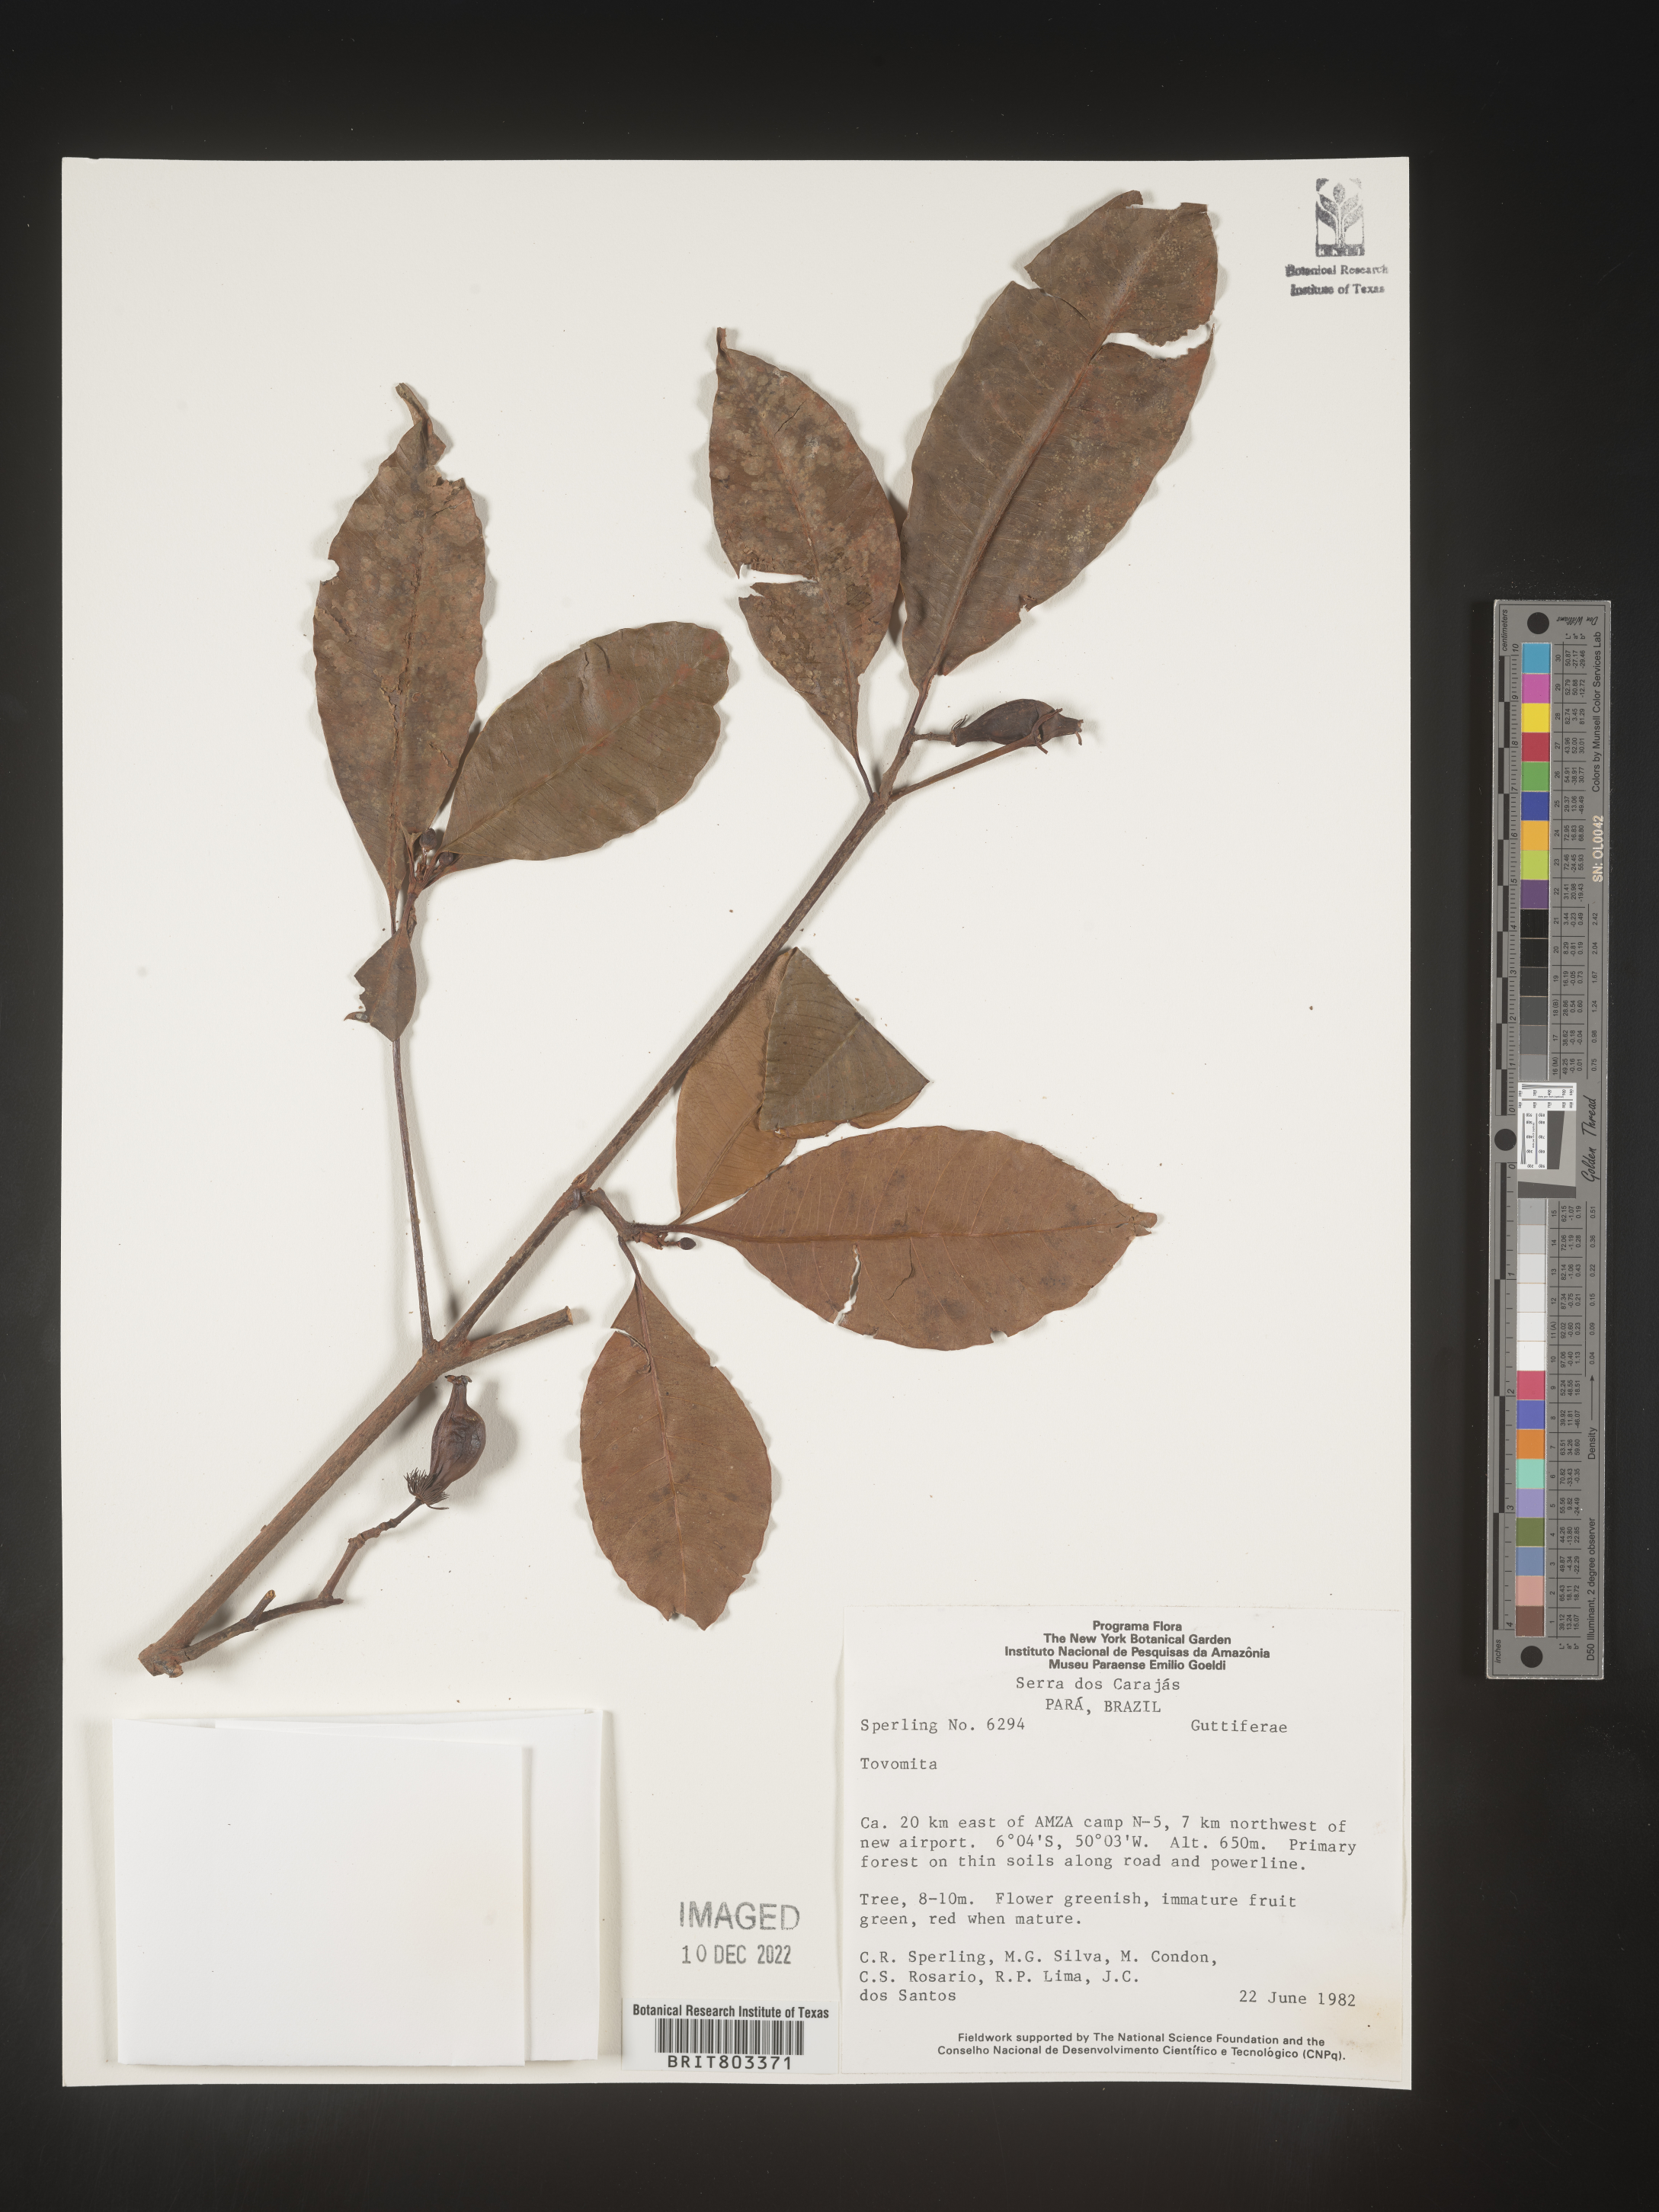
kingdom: Plantae
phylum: Tracheophyta
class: Magnoliopsida
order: Malpighiales
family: Clusiaceae
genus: Tovomita
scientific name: Tovomita
